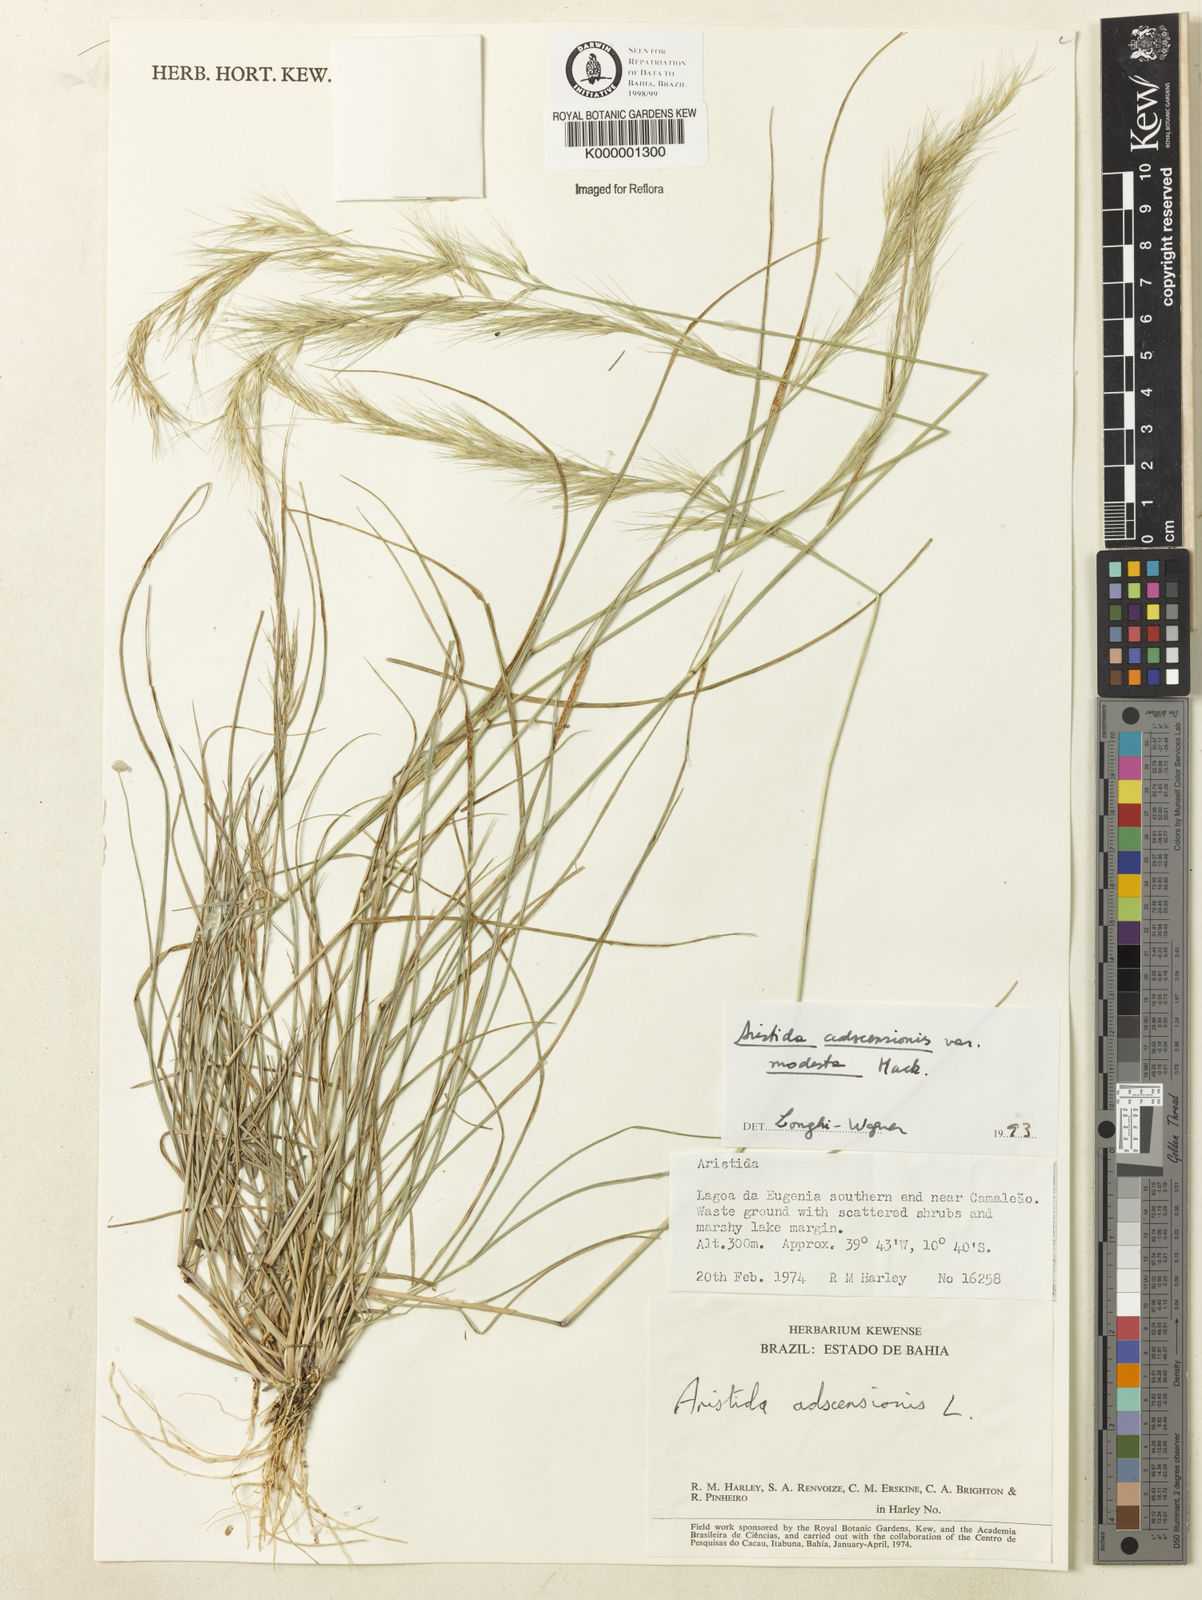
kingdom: Plantae
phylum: Tracheophyta
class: Liliopsida
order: Poales
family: Poaceae
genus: Aristida
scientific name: Aristida adscensionis
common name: Sixweeks threeawn
